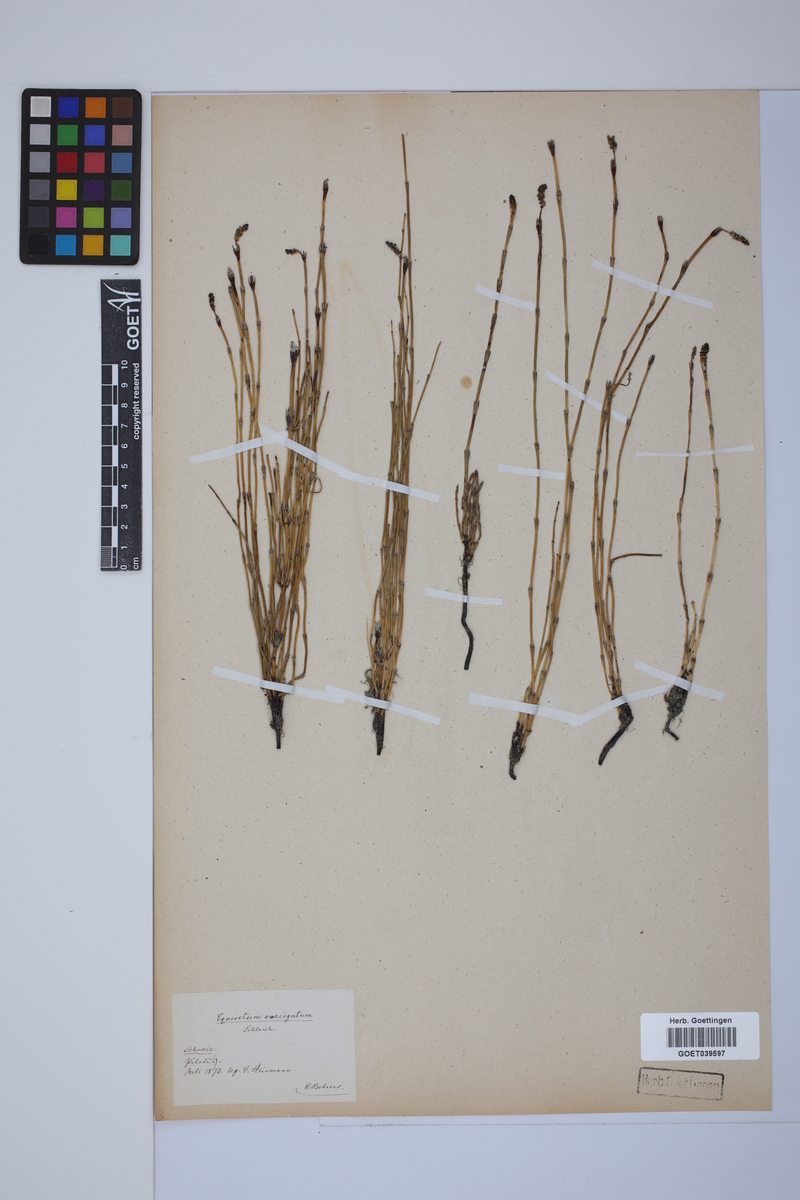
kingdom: Plantae
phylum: Tracheophyta
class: Polypodiopsida
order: Equisetales
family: Equisetaceae
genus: Equisetum
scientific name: Equisetum variegatum
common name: Variegated horsetail
